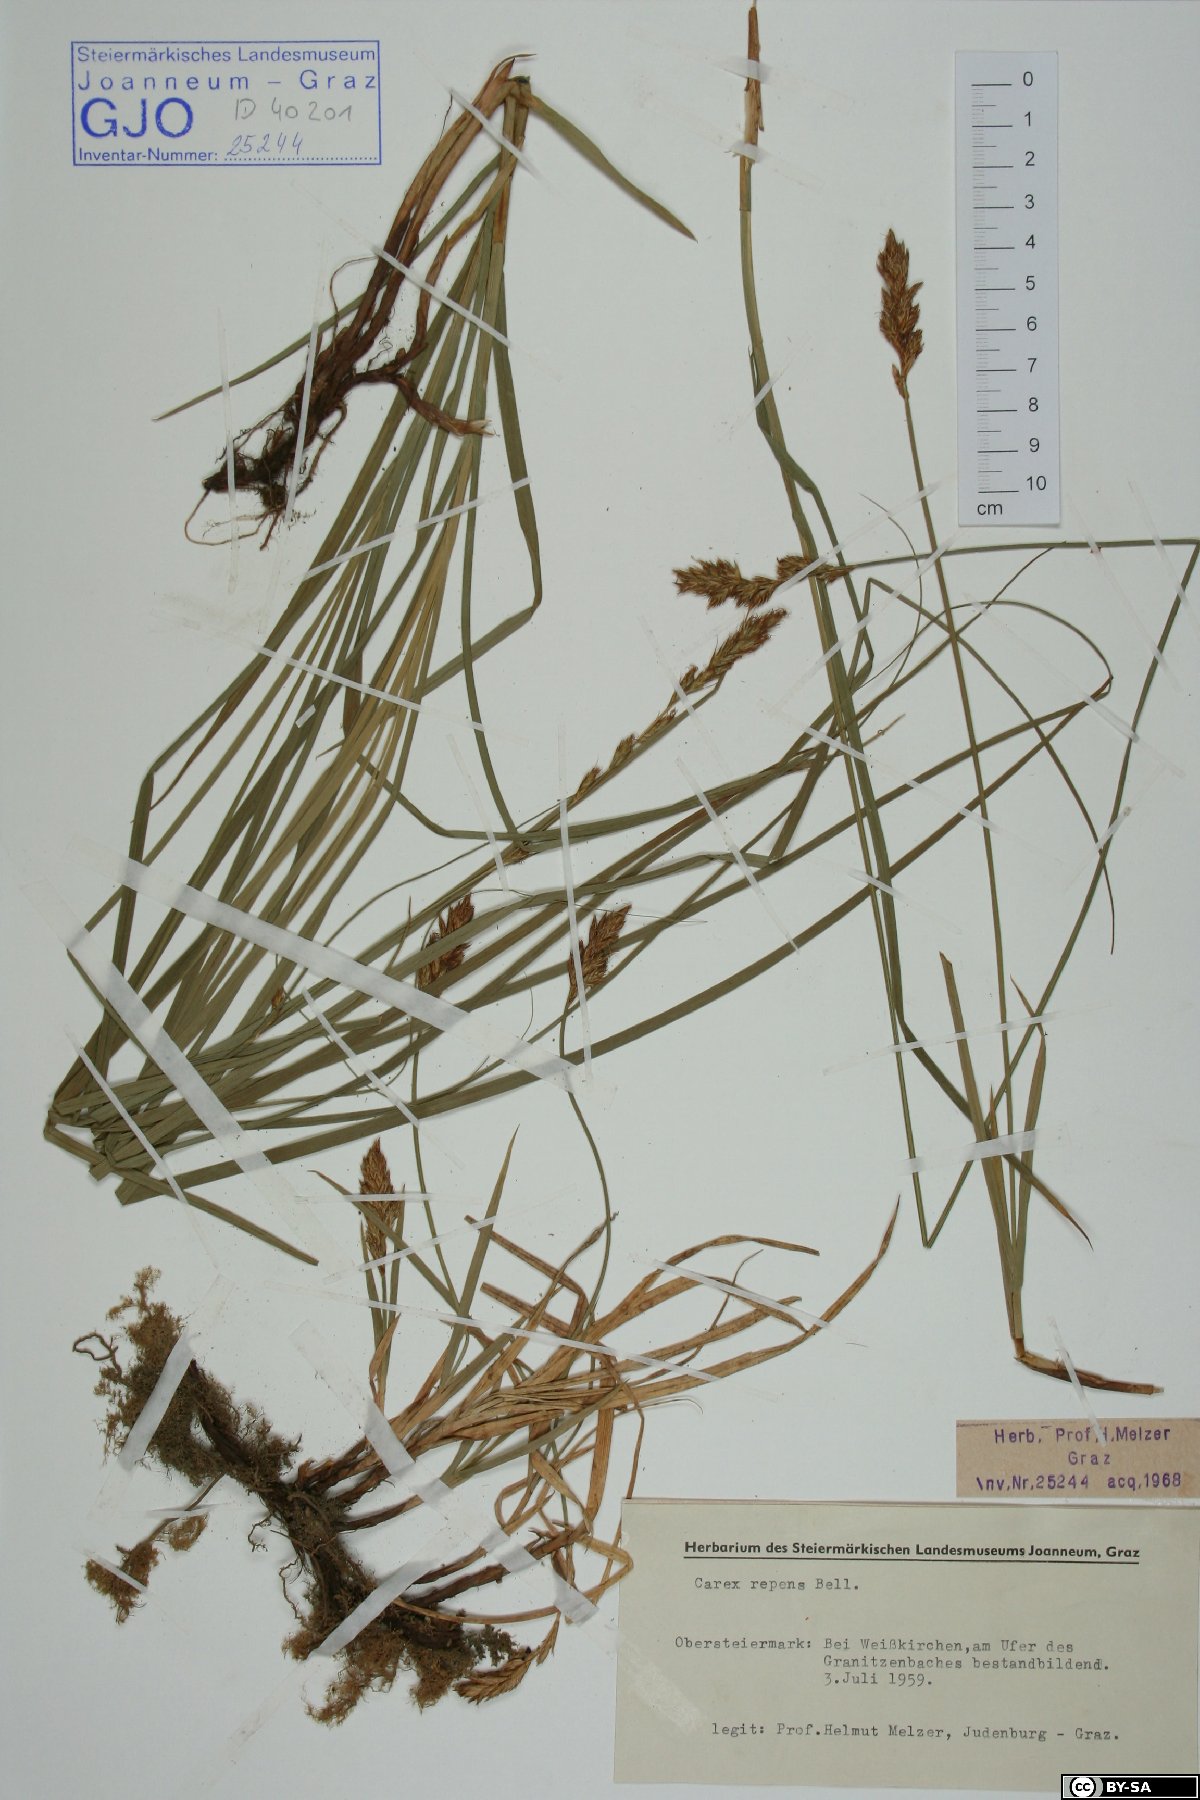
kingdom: Plantae
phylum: Tracheophyta
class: Liliopsida
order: Poales
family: Cyperaceae
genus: Carex
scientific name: Carex repens
